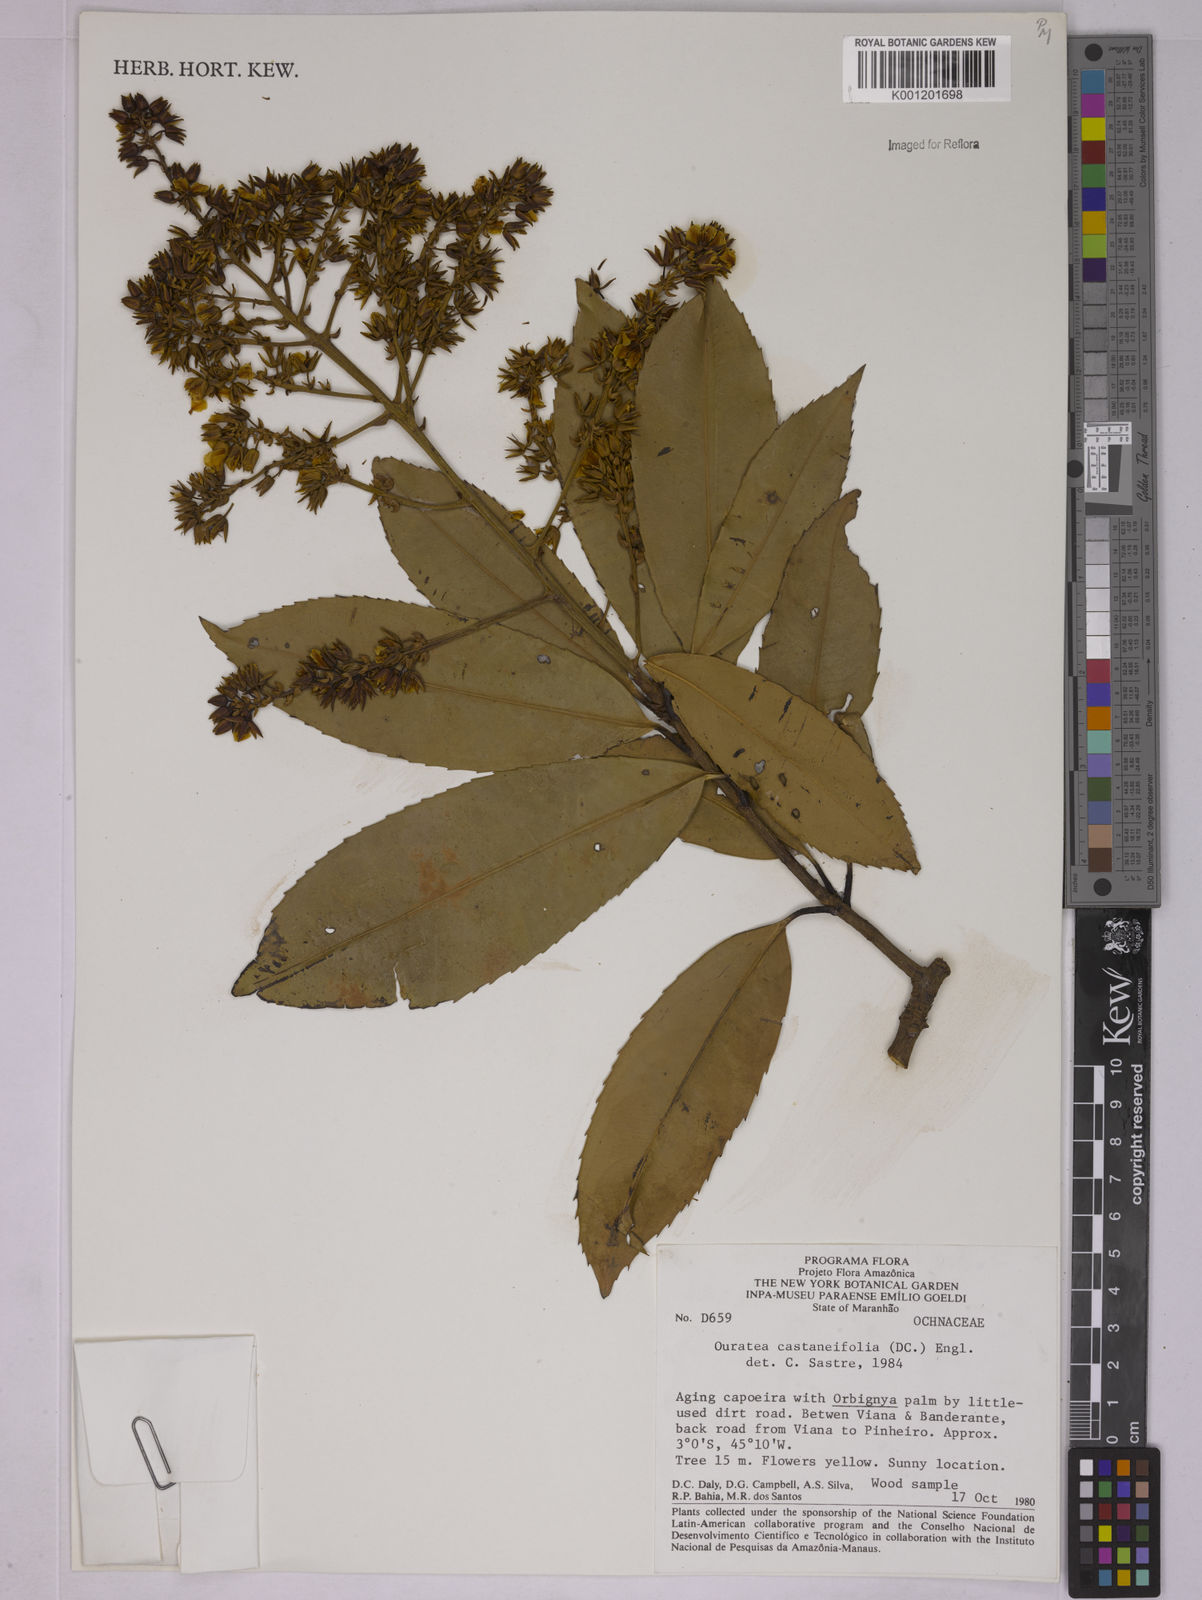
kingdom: Plantae
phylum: Tracheophyta
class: Magnoliopsida
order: Malpighiales
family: Ochnaceae
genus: Ouratea
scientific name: Ouratea castaneifolia
